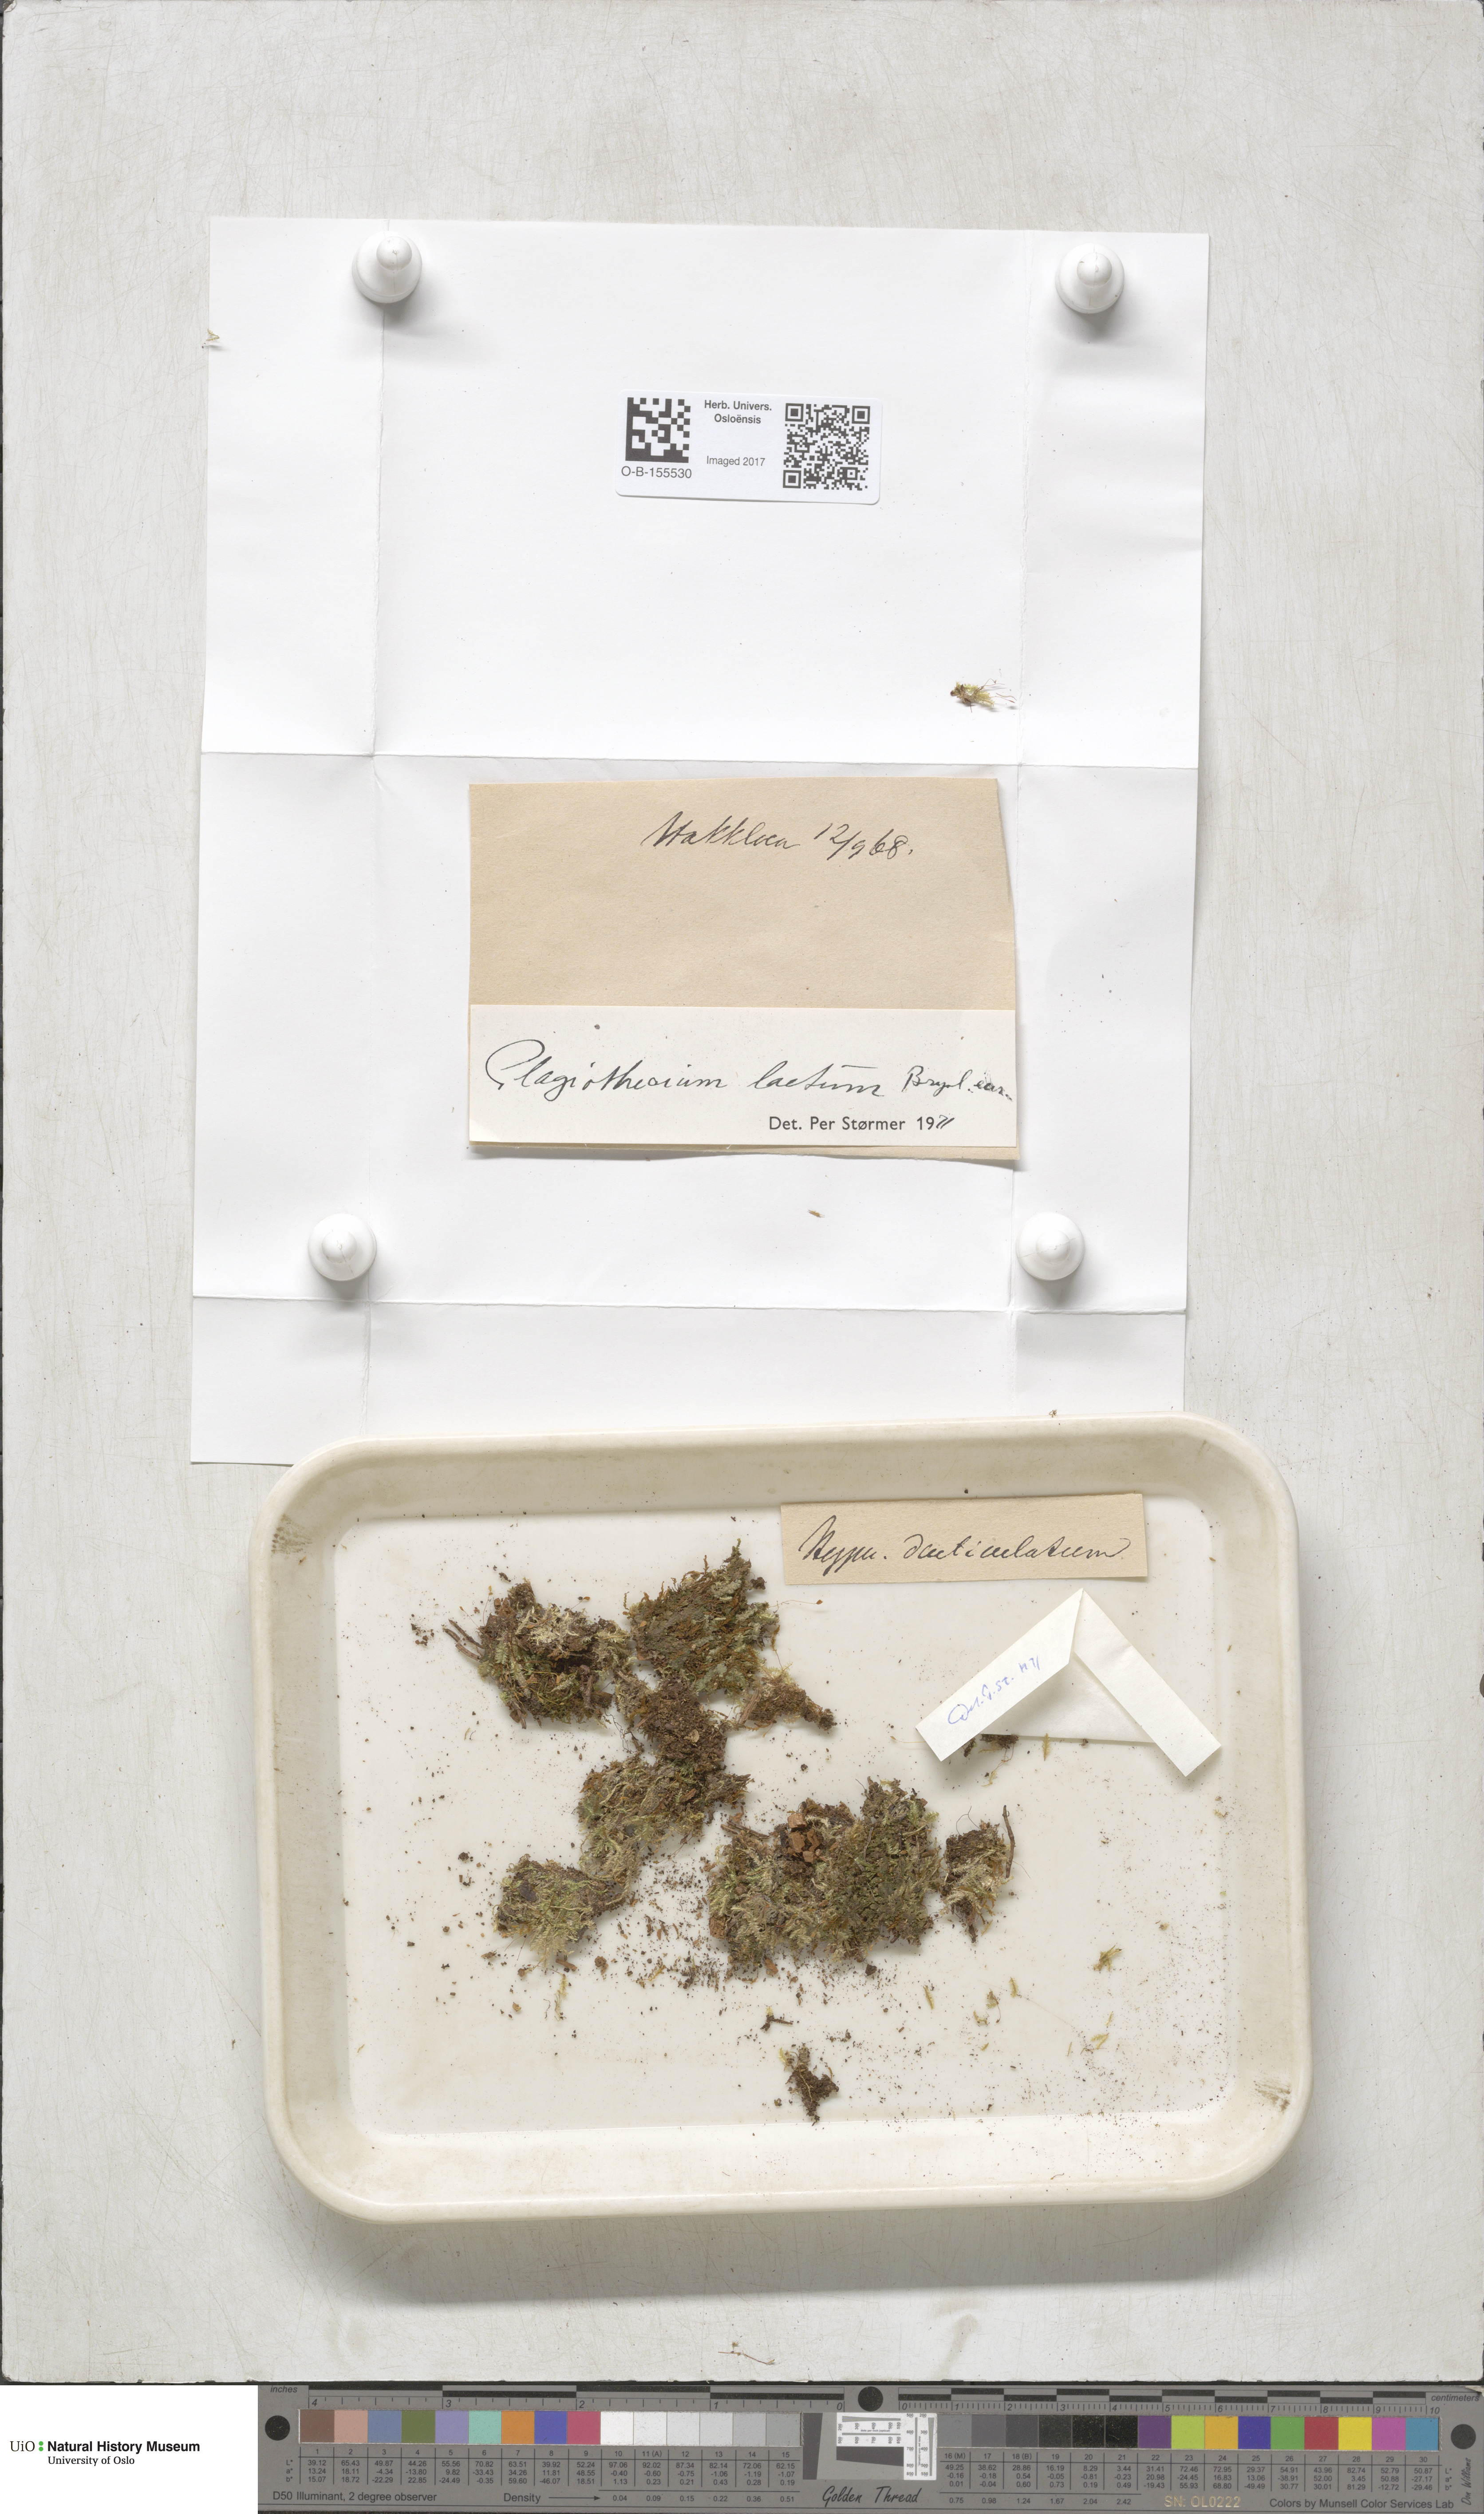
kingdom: Plantae
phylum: Bryophyta
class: Bryopsida
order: Hypnales
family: Plagiotheciaceae
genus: Plagiothecium
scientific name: Plagiothecium laetum
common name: Bright silk moss
